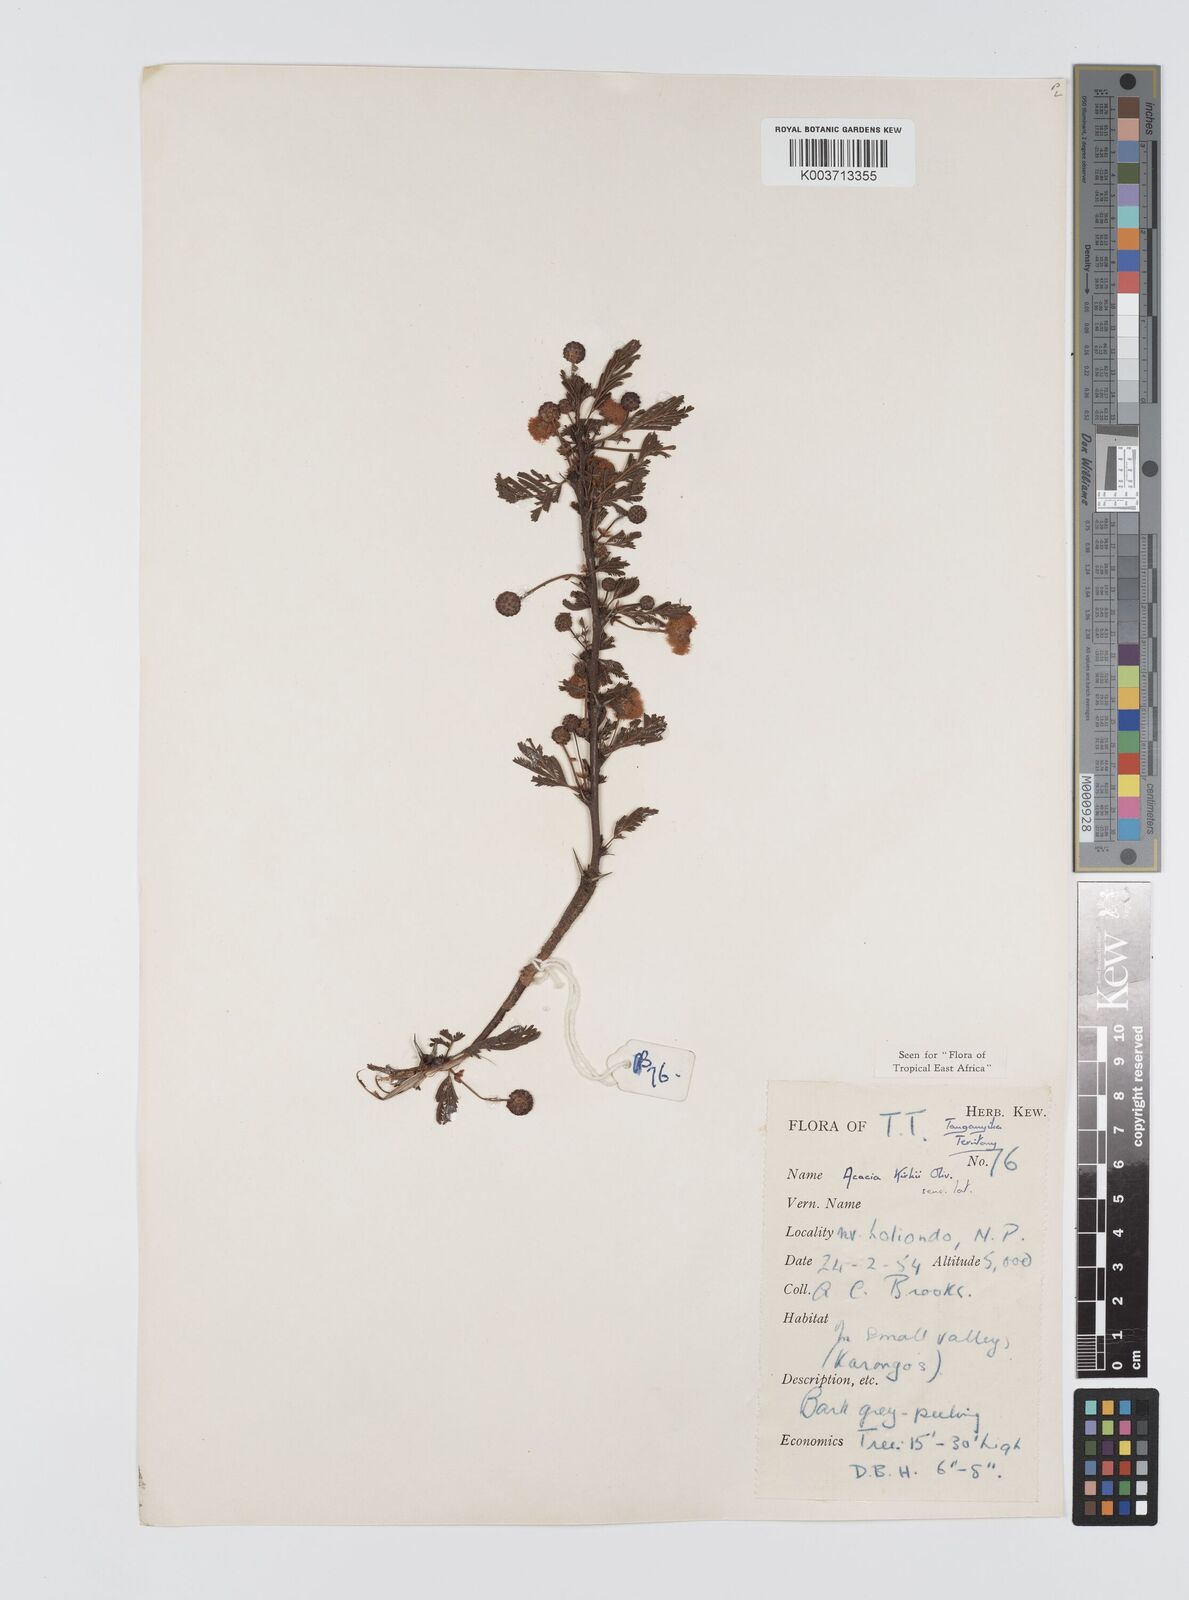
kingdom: Plantae
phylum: Tracheophyta
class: Magnoliopsida
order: Fabales
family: Fabaceae
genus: Vachellia
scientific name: Vachellia kirkii
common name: Flood-plain acacia
